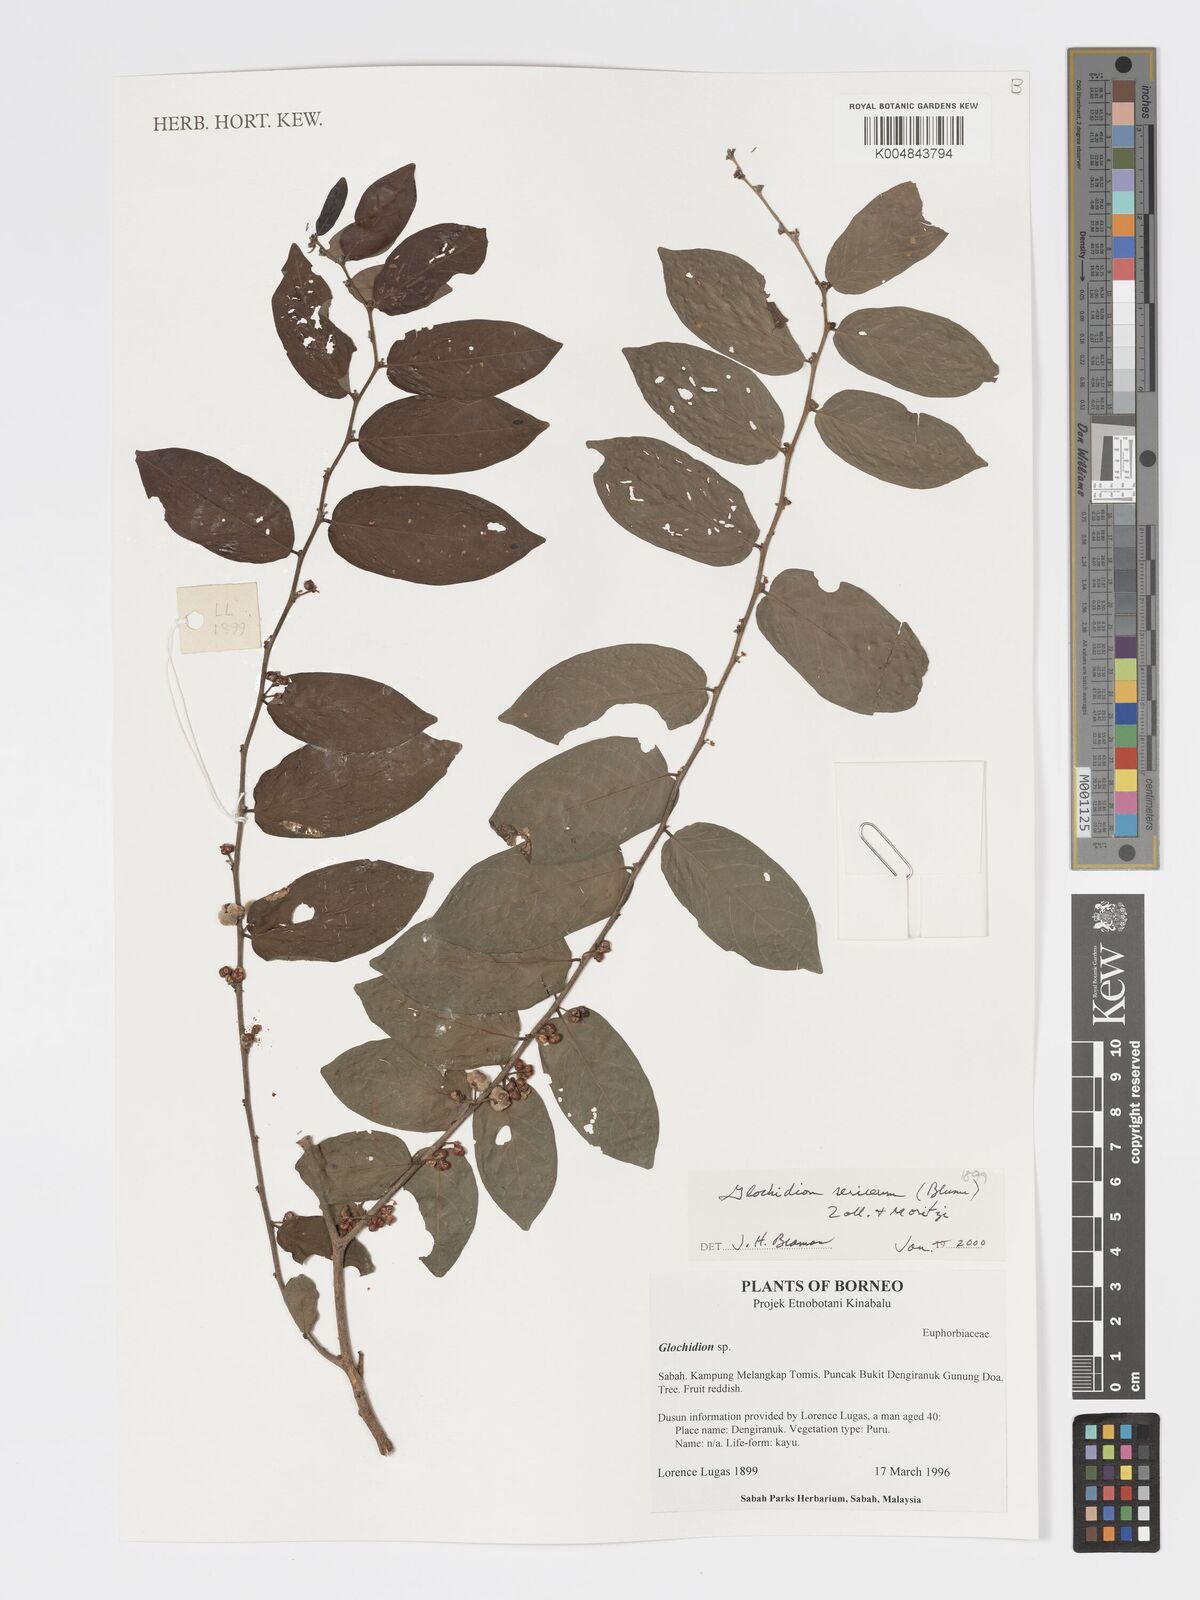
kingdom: Plantae
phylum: Tracheophyta
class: Magnoliopsida
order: Malpighiales
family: Phyllanthaceae
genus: Glochidion
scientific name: Glochidion sericeum
